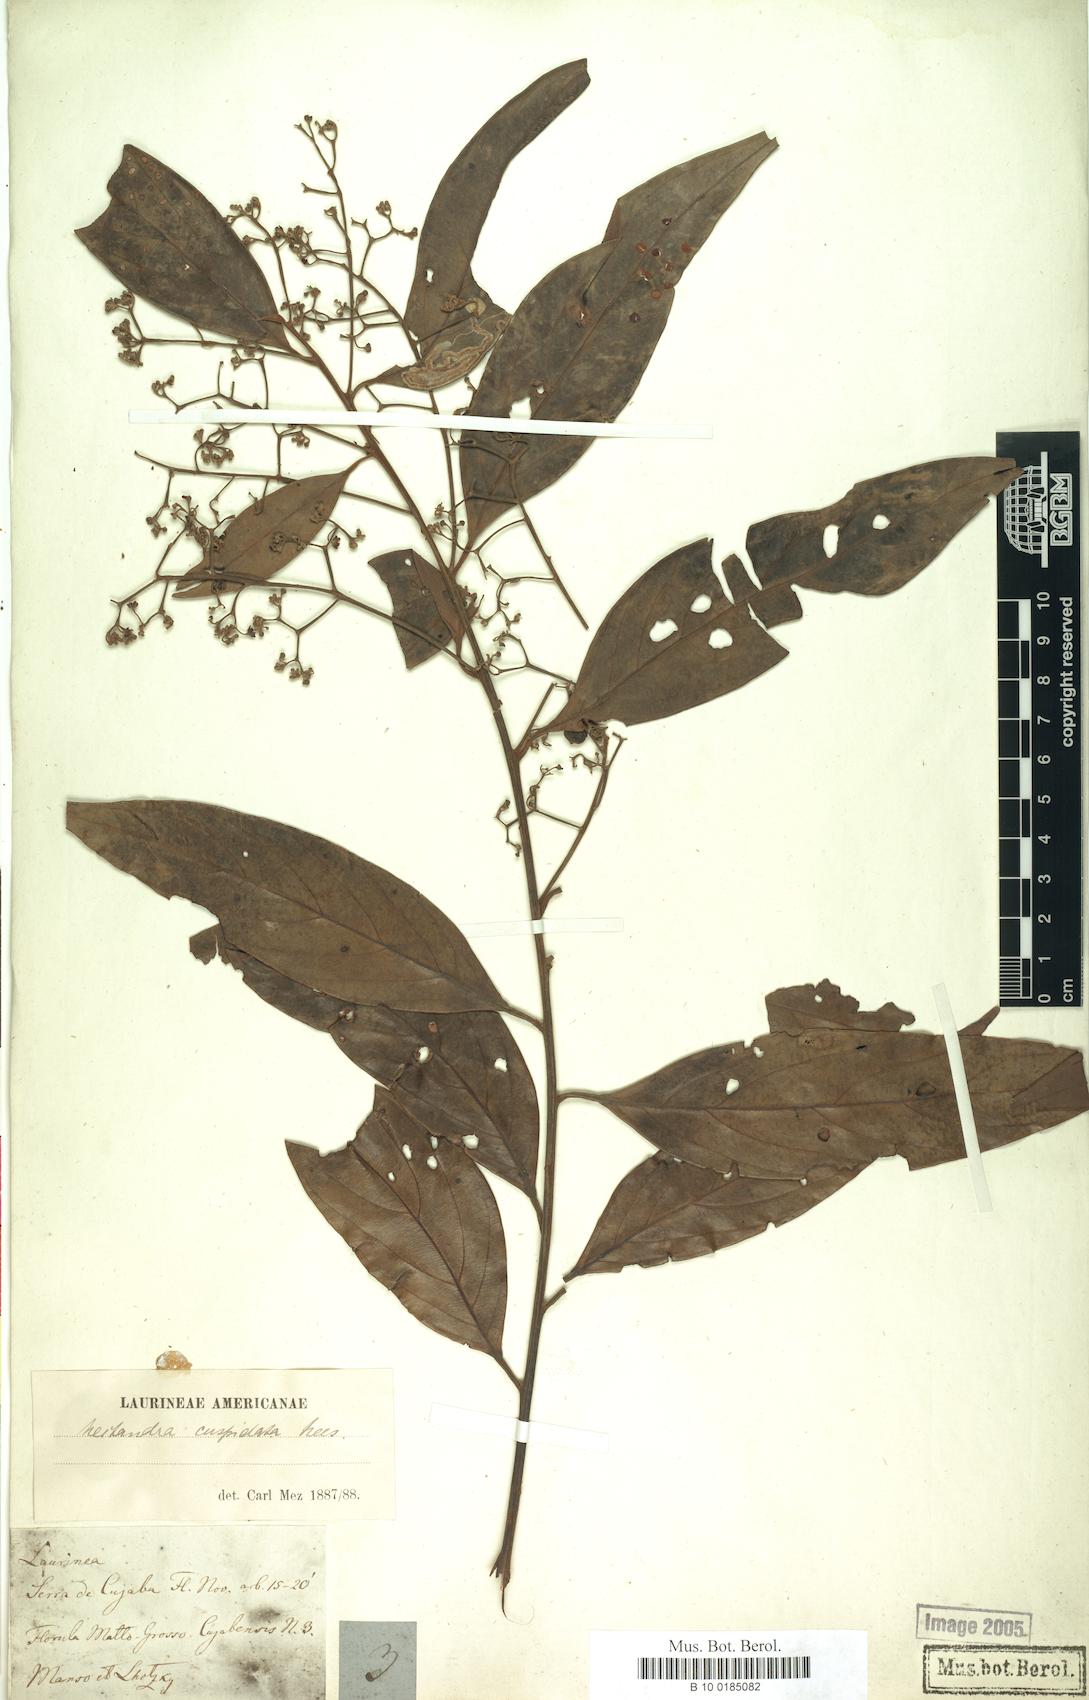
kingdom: Plantae
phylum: Tracheophyta
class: Magnoliopsida
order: Laurales
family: Lauraceae
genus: Nectandra
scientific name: Nectandra cuspidata
